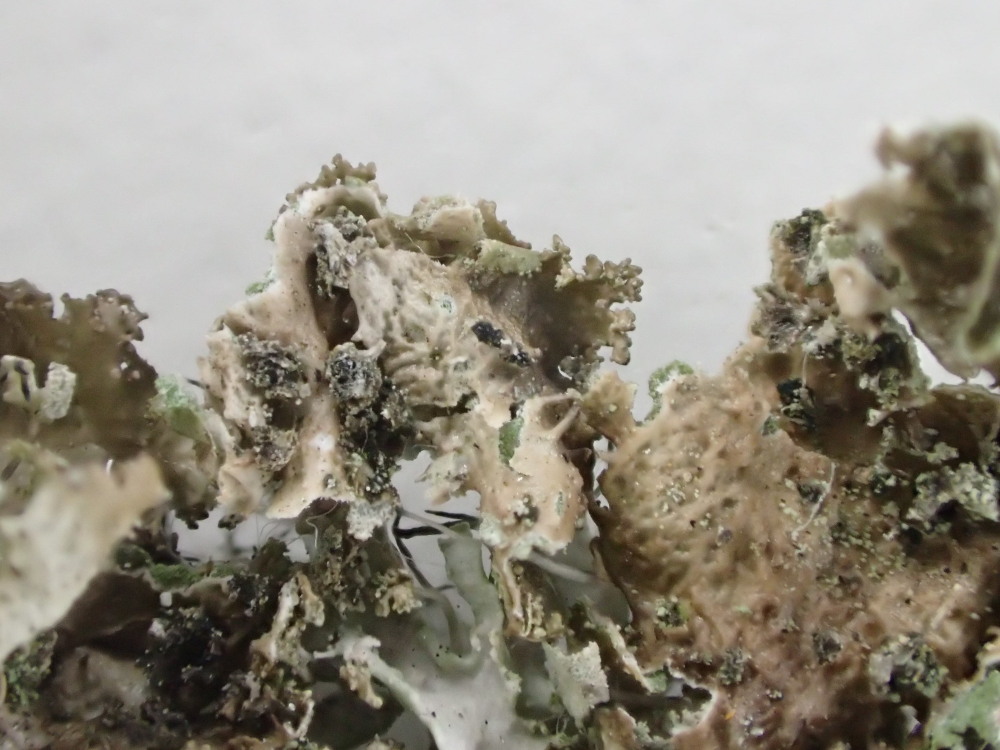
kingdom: Fungi
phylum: Ascomycota
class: Lecanoromycetes
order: Lecanorales
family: Parmeliaceae
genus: Melanohalea
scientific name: Melanohalea exasperatula
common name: kølle-skållav
